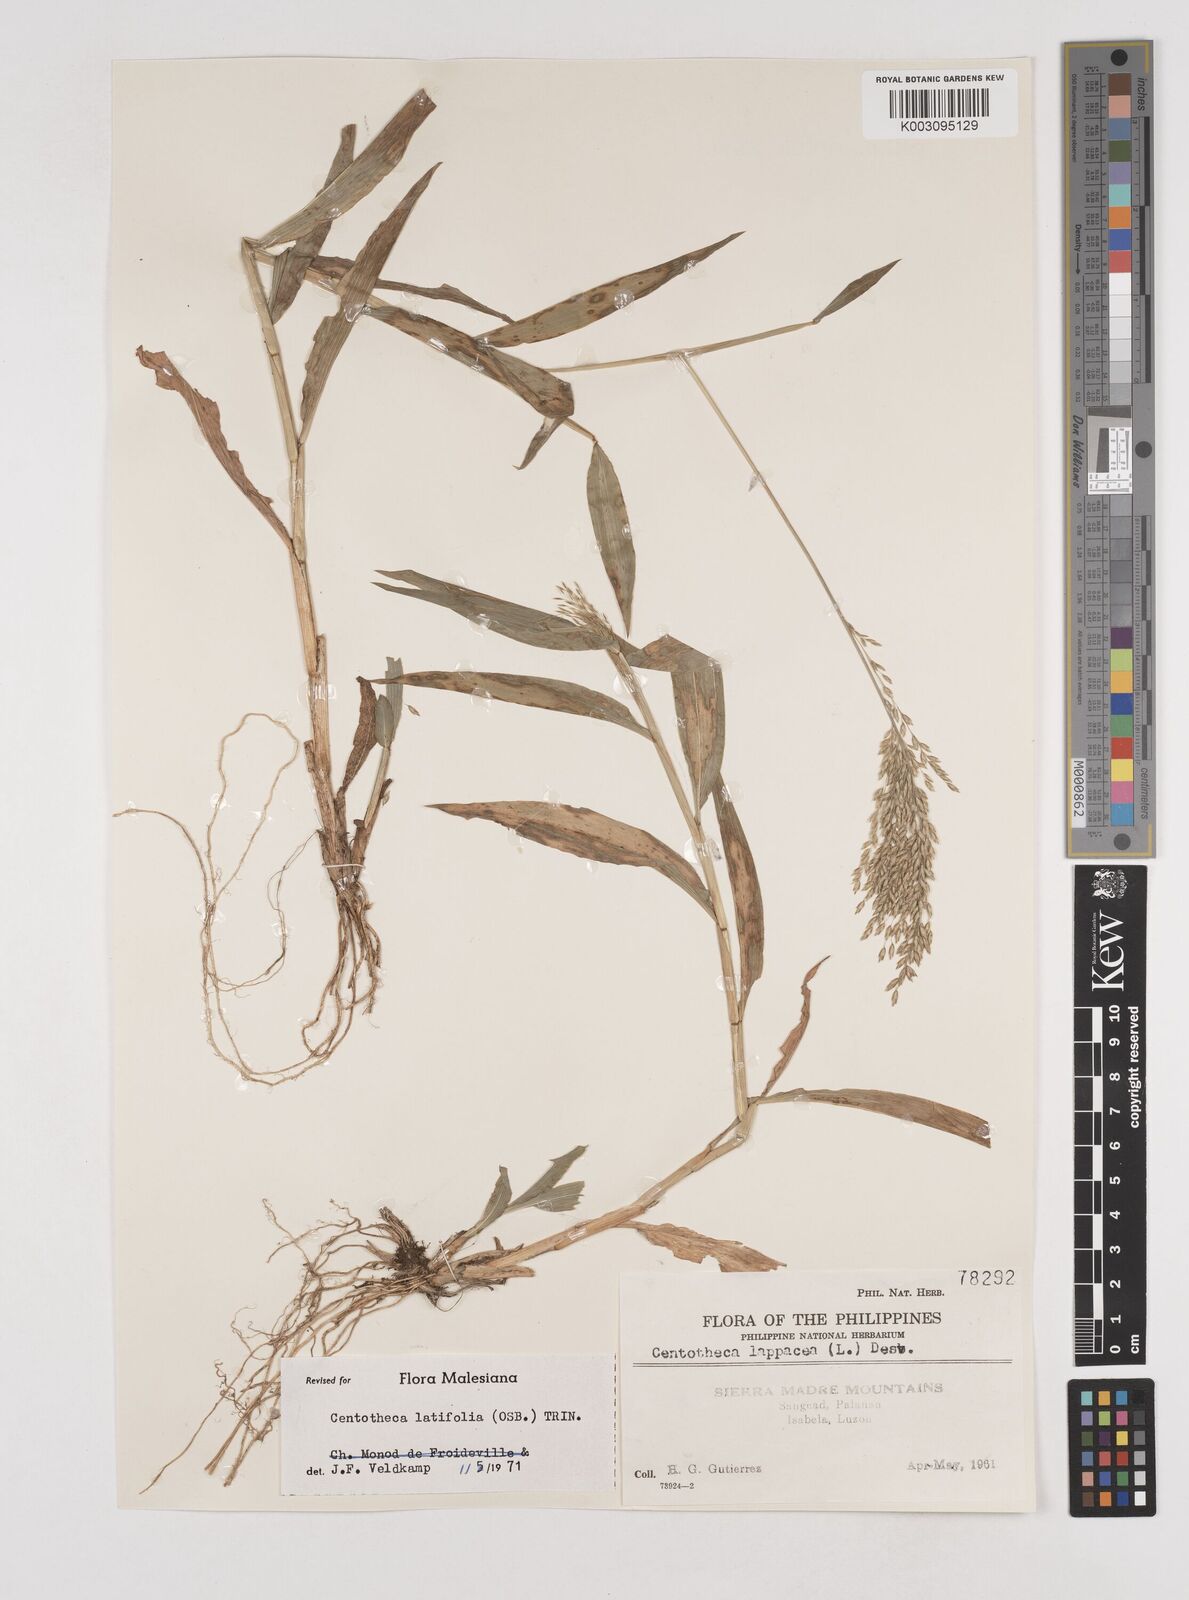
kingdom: Plantae
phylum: Tracheophyta
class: Liliopsida
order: Poales
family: Poaceae
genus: Centotheca
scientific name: Centotheca lappacea
